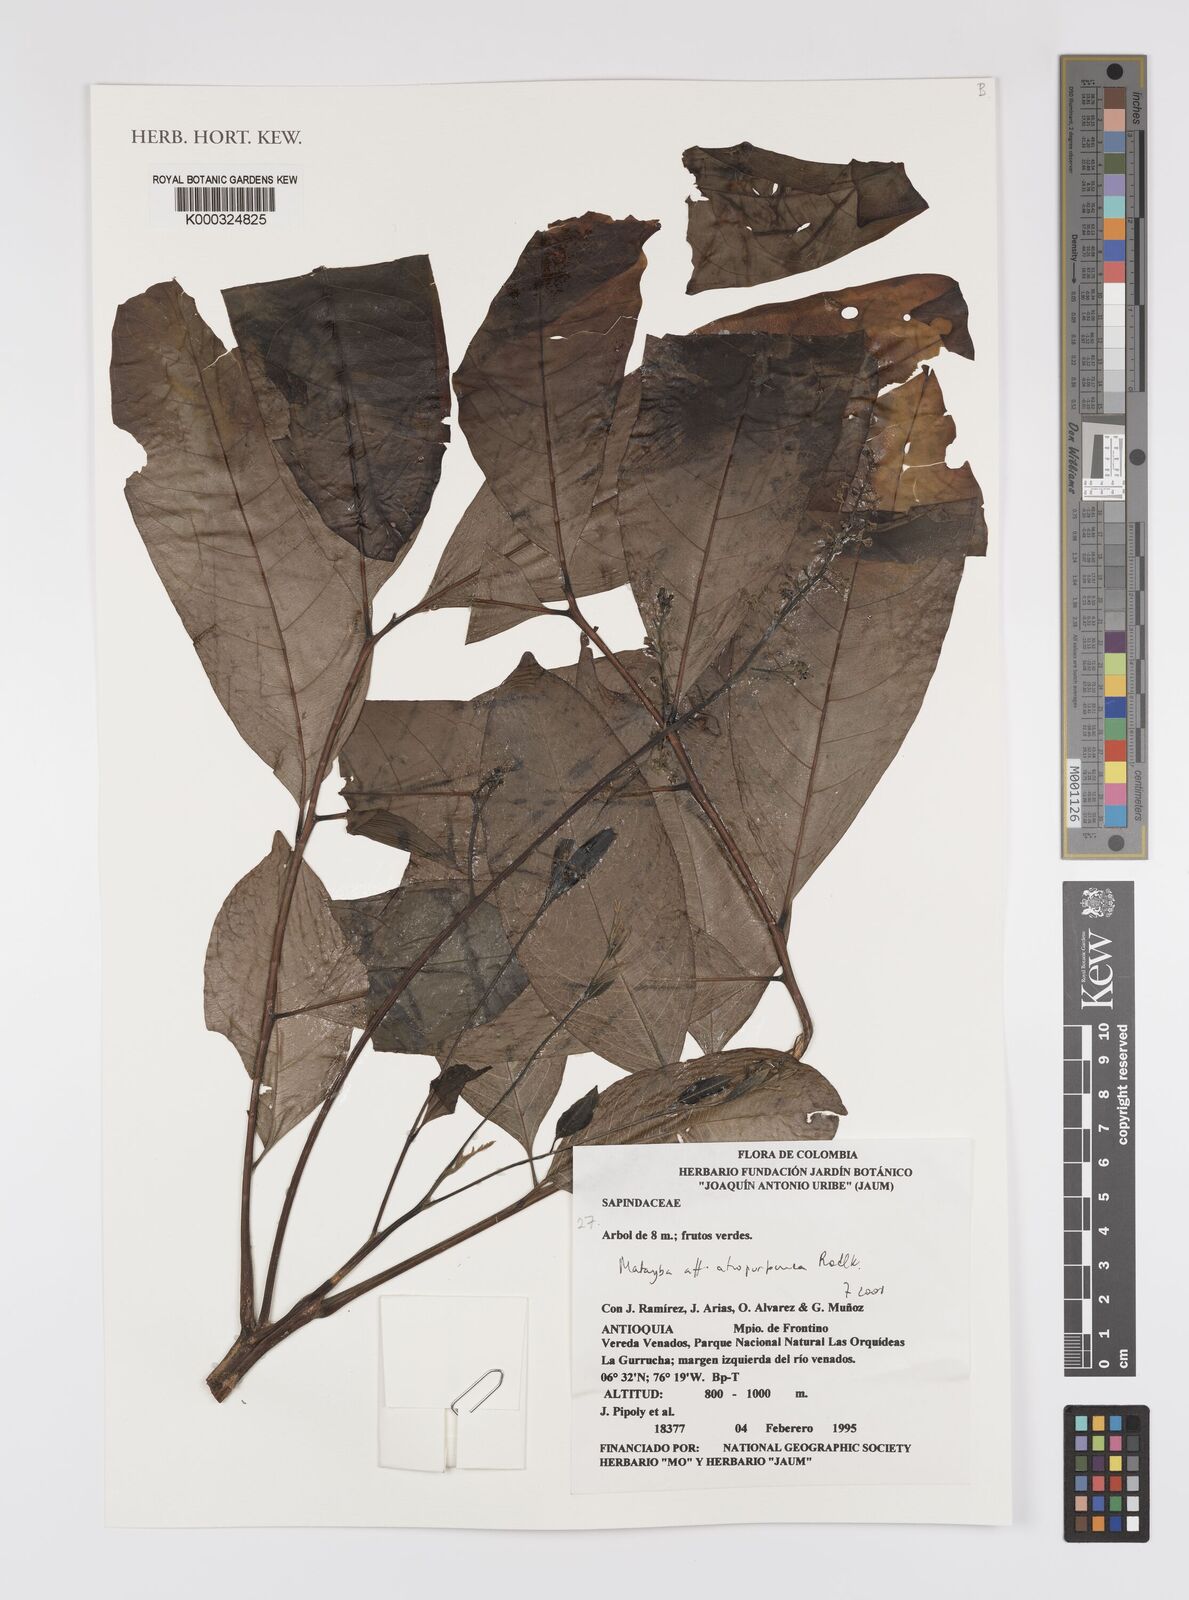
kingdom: Plantae
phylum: Tracheophyta
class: Magnoliopsida
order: Sapindales
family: Sapindaceae
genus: Matayba
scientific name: Matayba atropurpurea
